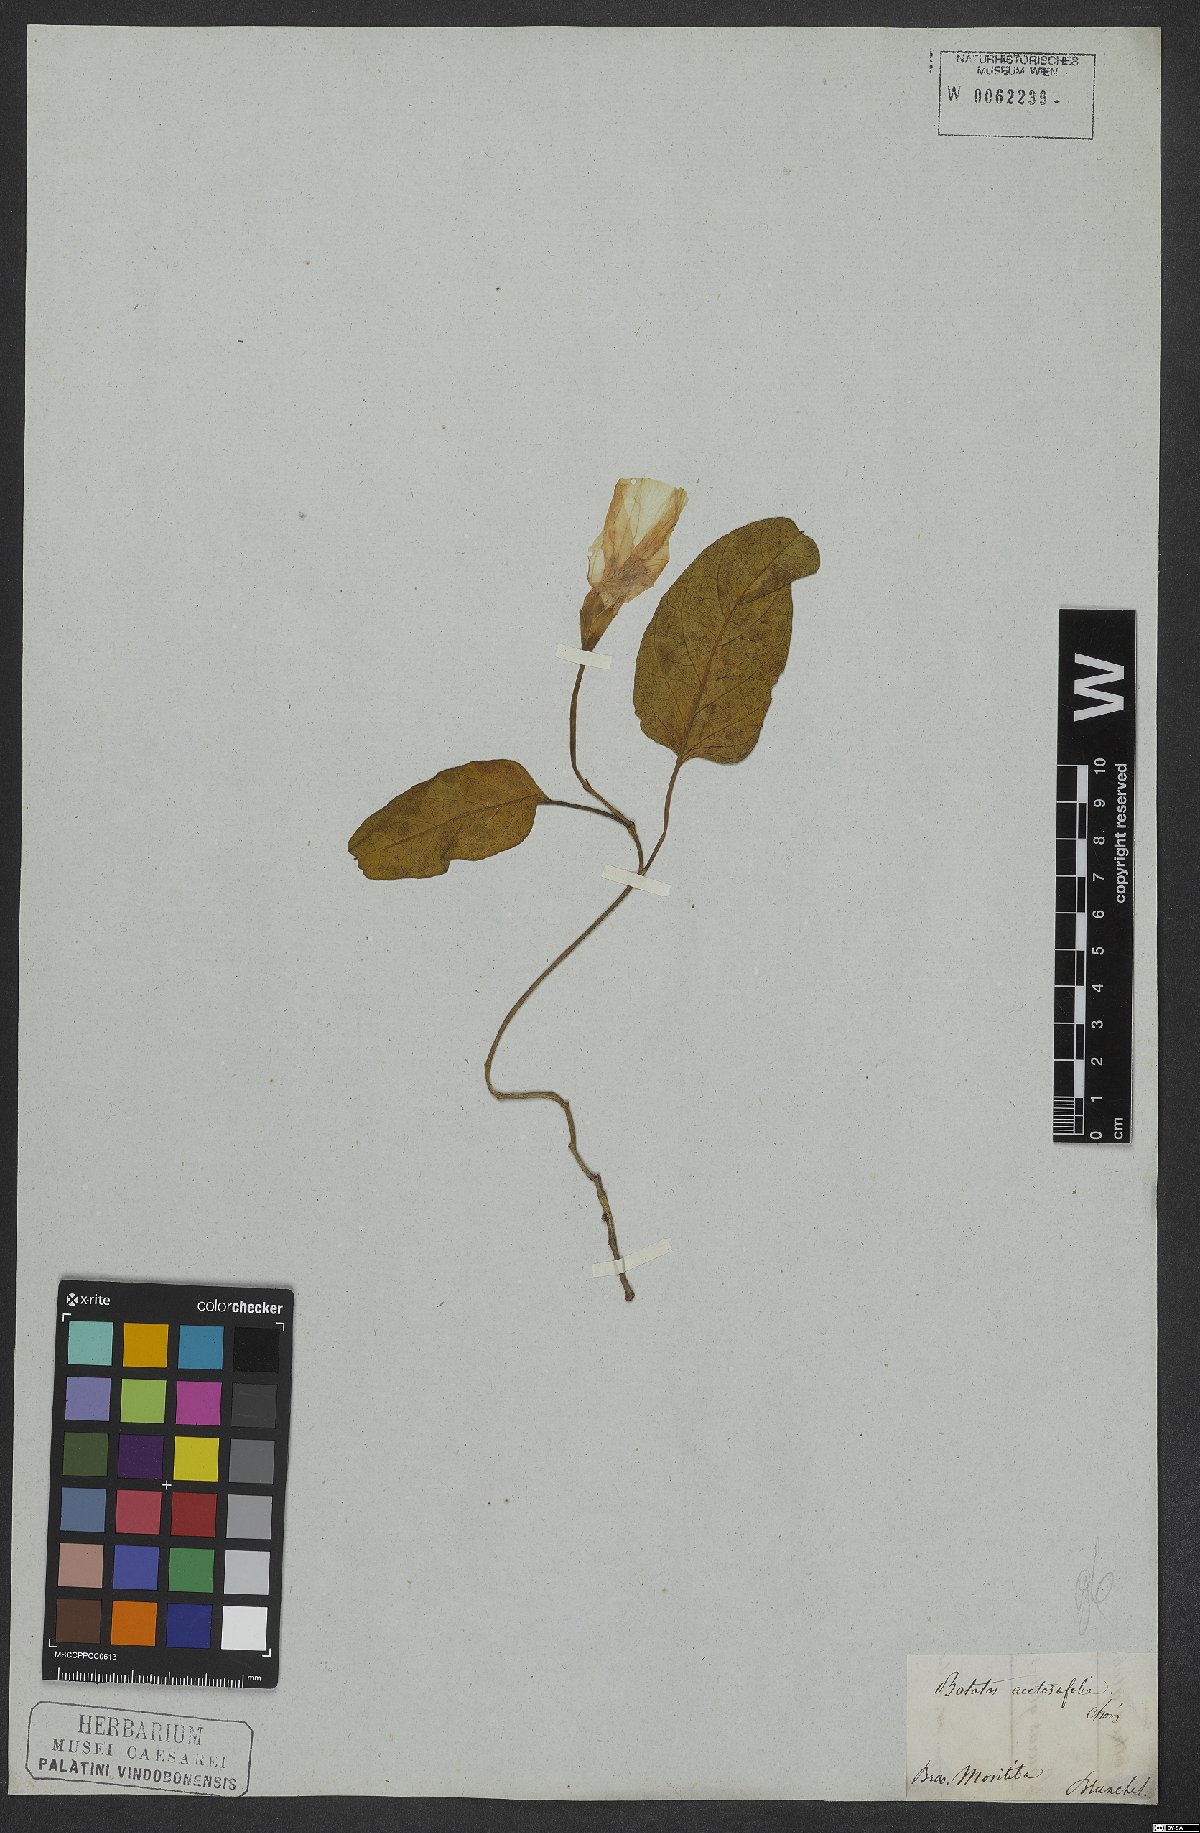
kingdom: Plantae
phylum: Tracheophyta
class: Magnoliopsida
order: Solanales
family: Convolvulaceae
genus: Ipomoea
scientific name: Ipomoea imperati
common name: Fiddle-leaf morning-glory
